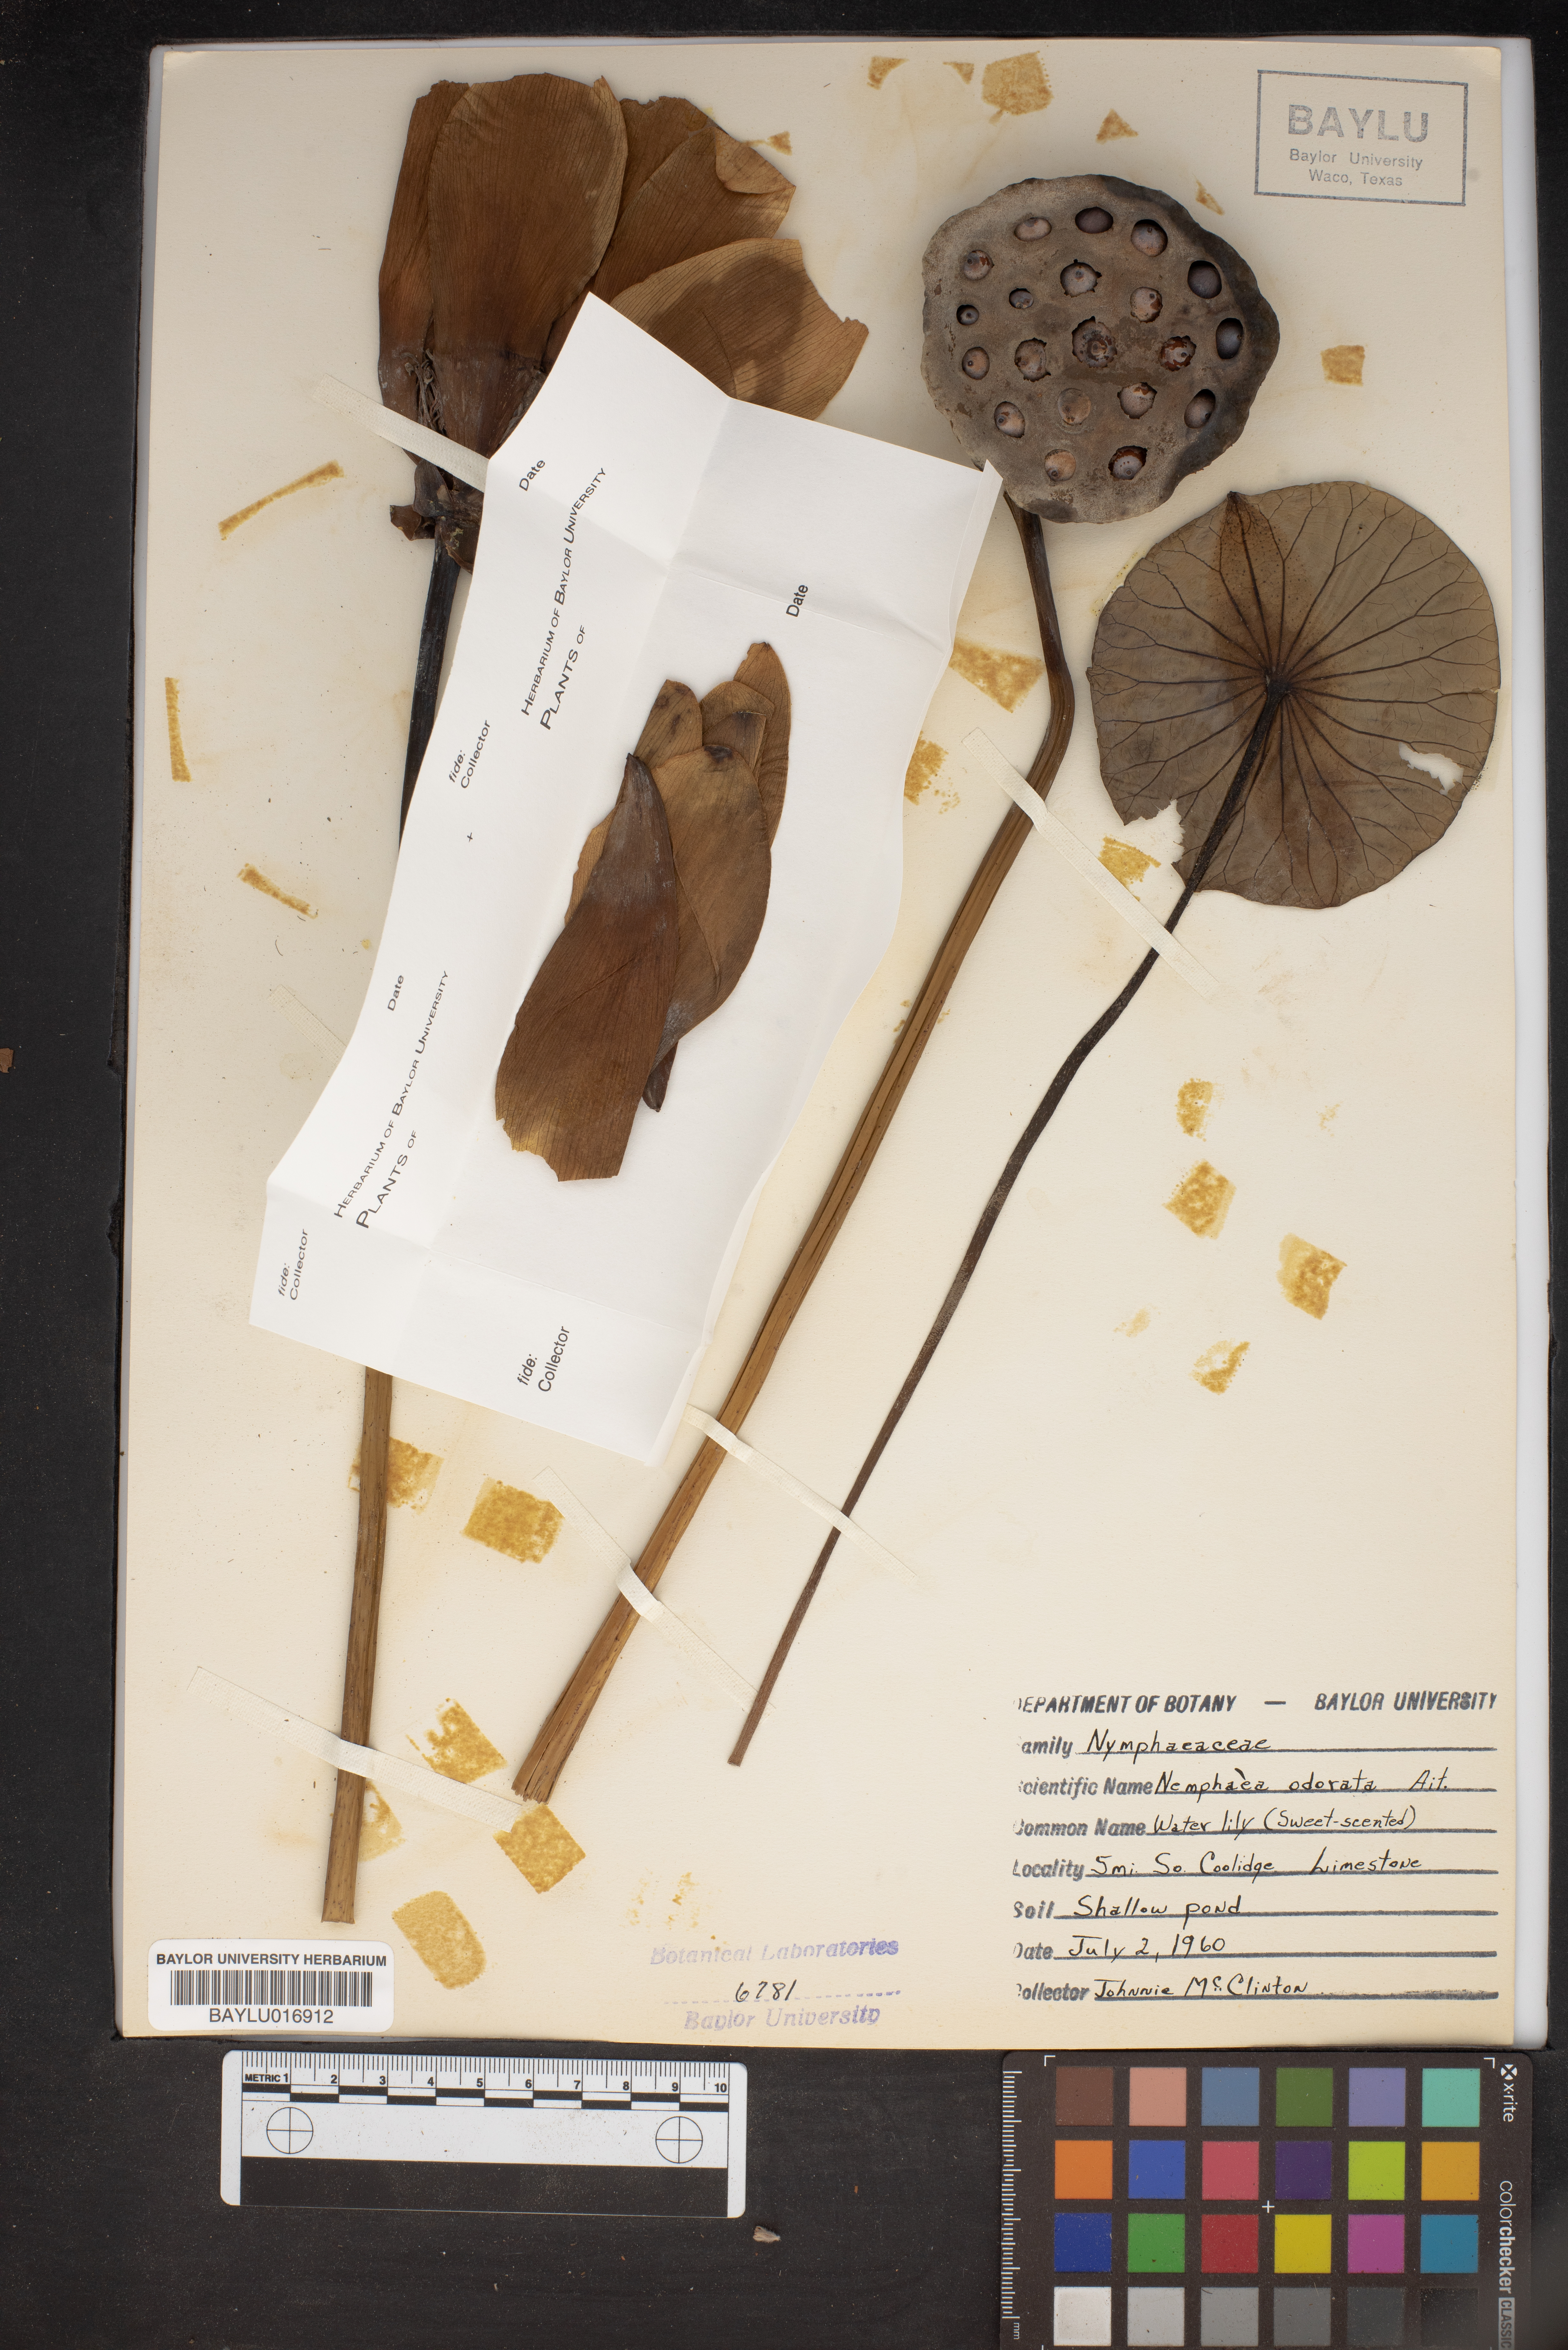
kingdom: Plantae
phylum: Tracheophyta
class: Magnoliopsida
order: Nymphaeales
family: Nymphaeaceae
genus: Nymphaea
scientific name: Nymphaea odorata
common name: Fragrant water-lily
